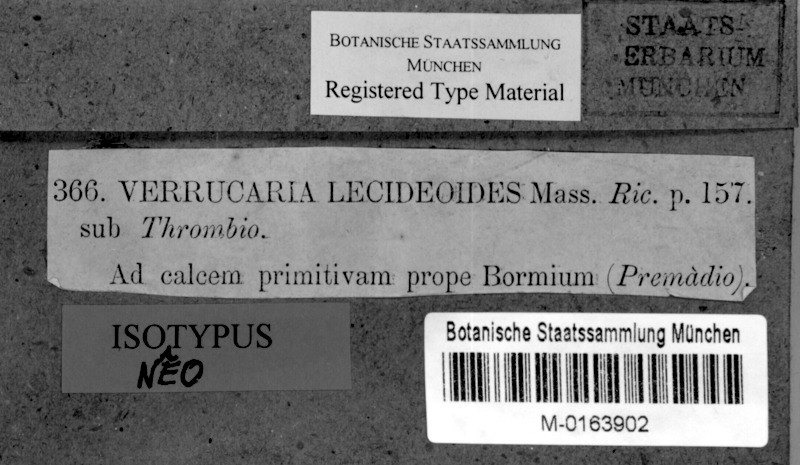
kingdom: Fungi
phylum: Ascomycota
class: Eurotiomycetes
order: Verrucariales
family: Verrucariaceae
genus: Verruculopsis
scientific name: Verruculopsis lecideoides
